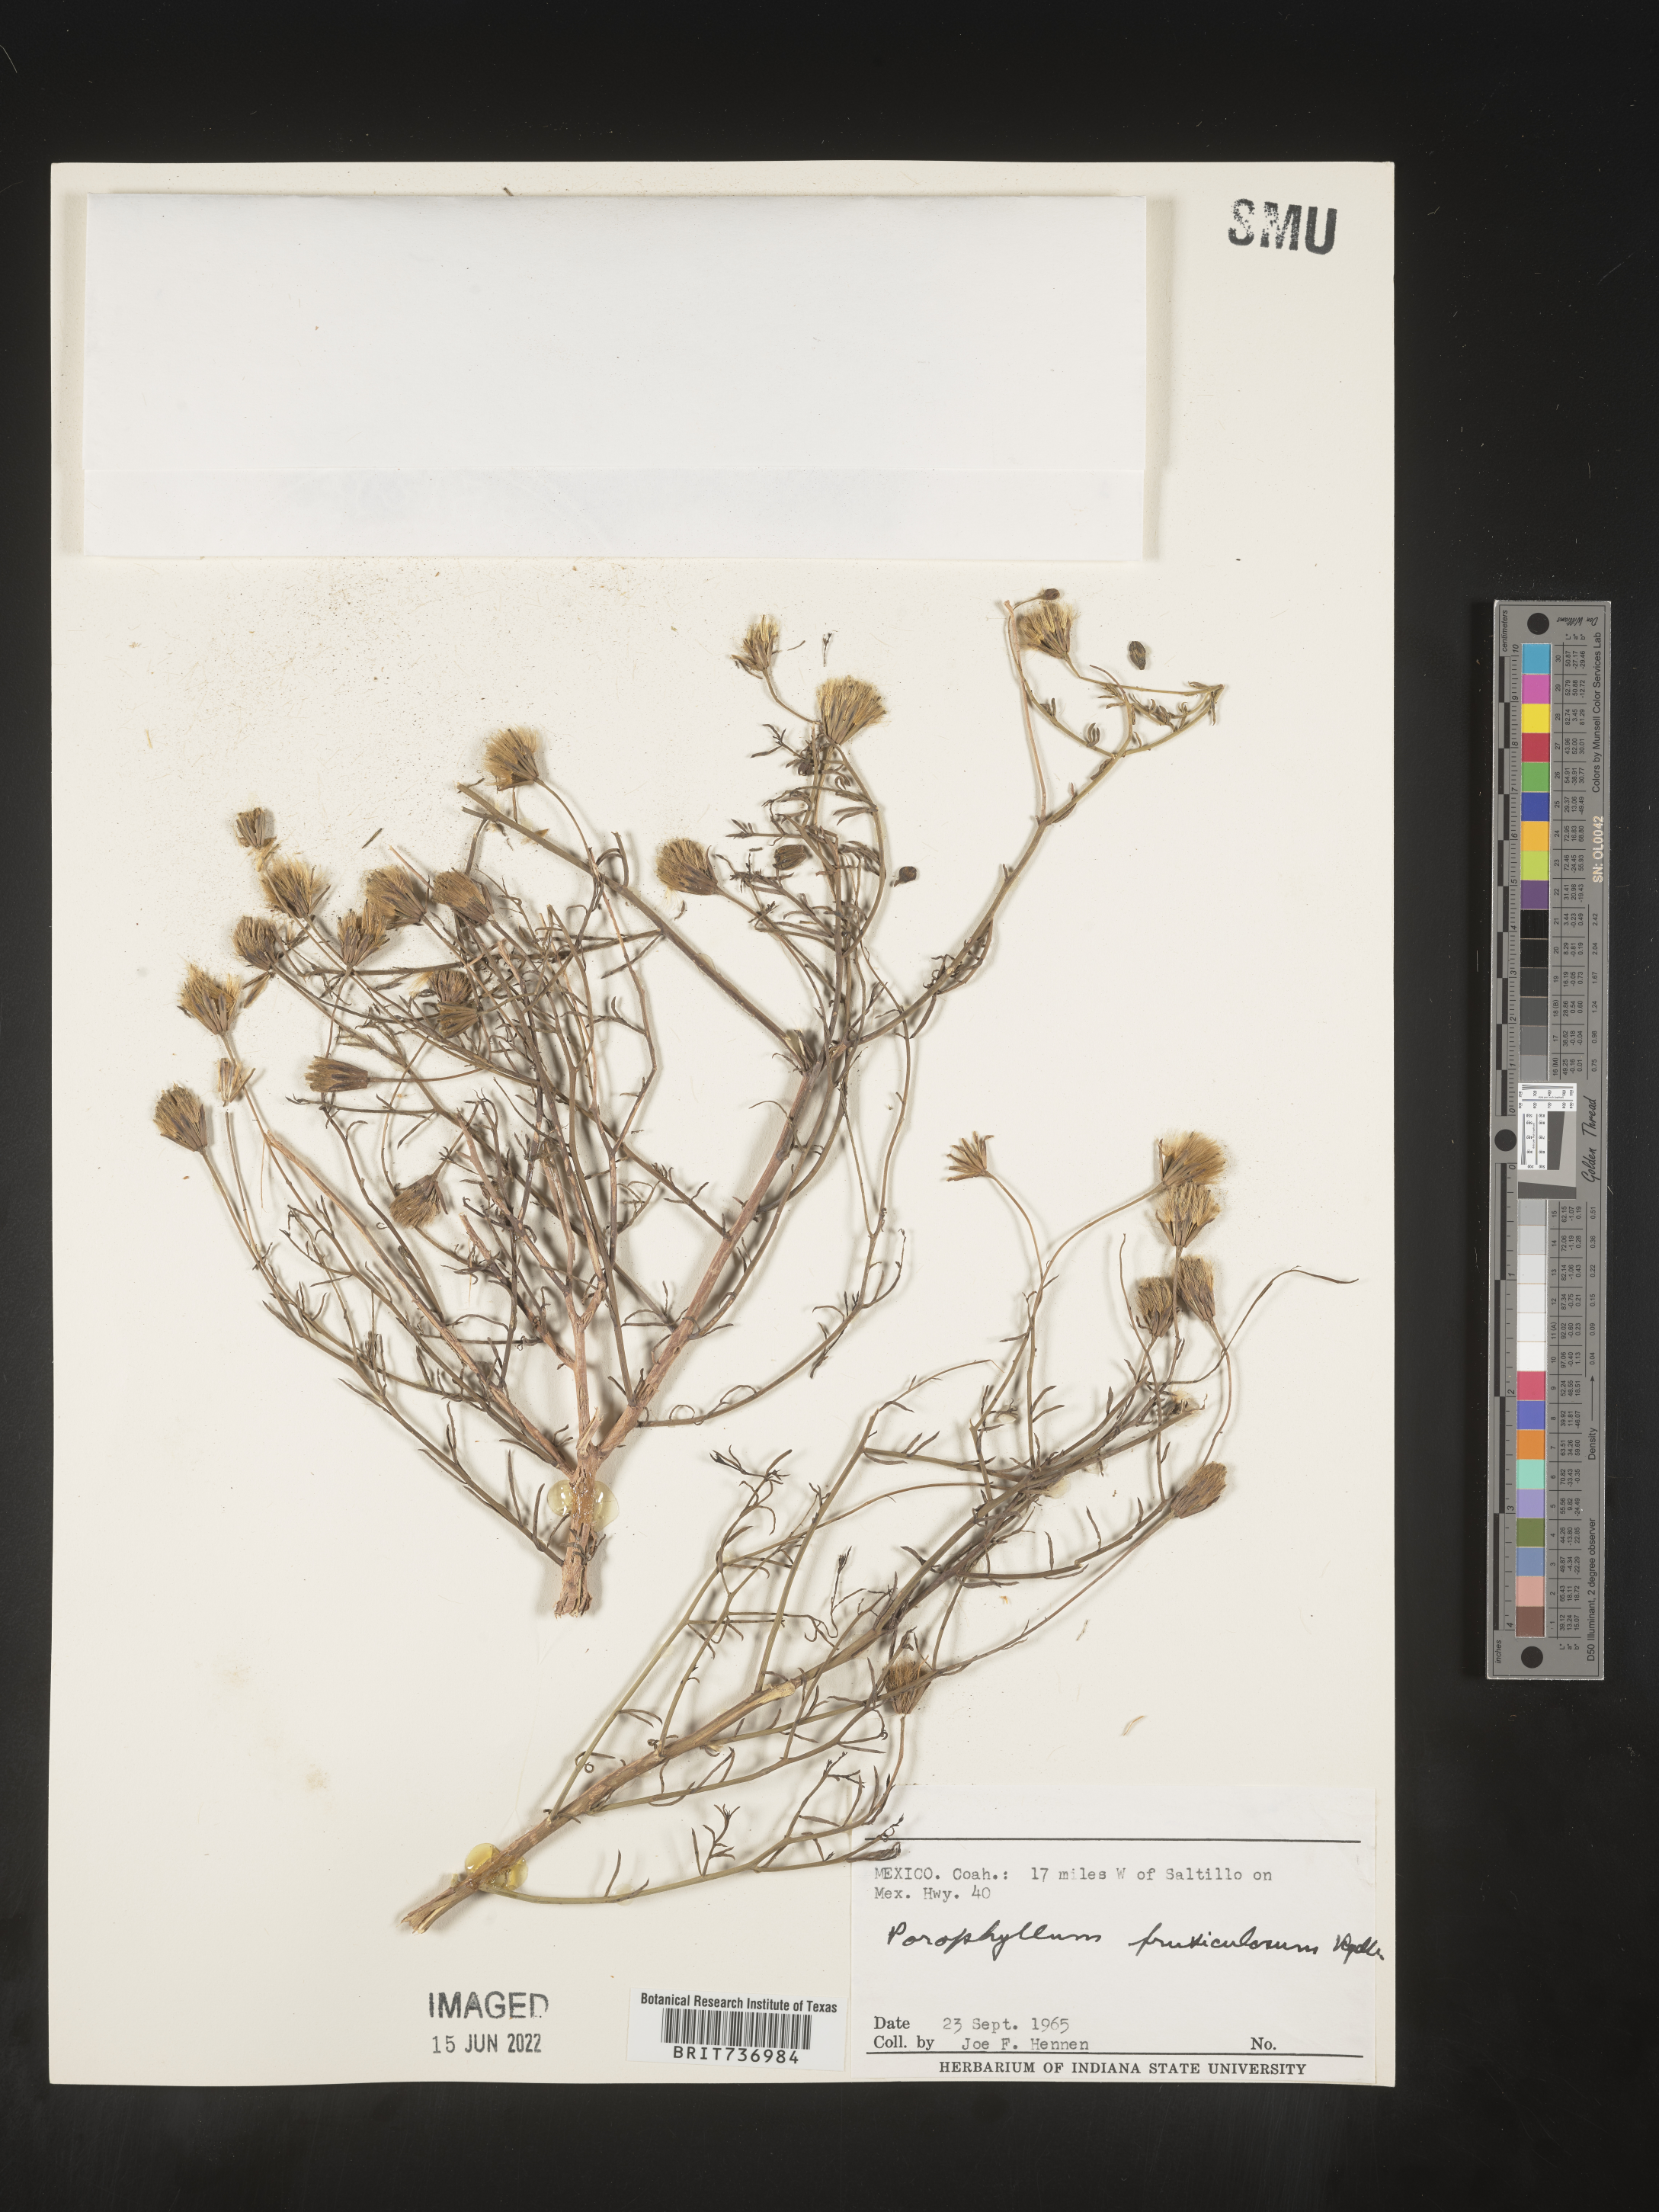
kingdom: Plantae
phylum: Tracheophyta
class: Magnoliopsida
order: Asterales
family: Asteraceae
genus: Porophyllum
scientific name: Porophyllum
